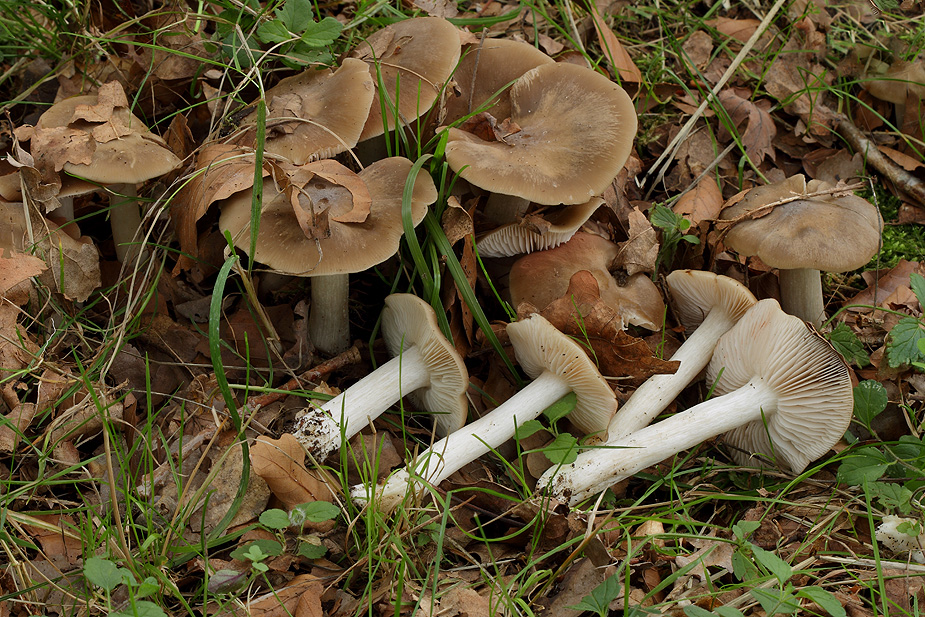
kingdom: Fungi
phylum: Basidiomycota
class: Agaricomycetes
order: Agaricales
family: Entolomataceae
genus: Entoloma
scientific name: Entoloma lividoalbum
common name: lysstokket rødblad
